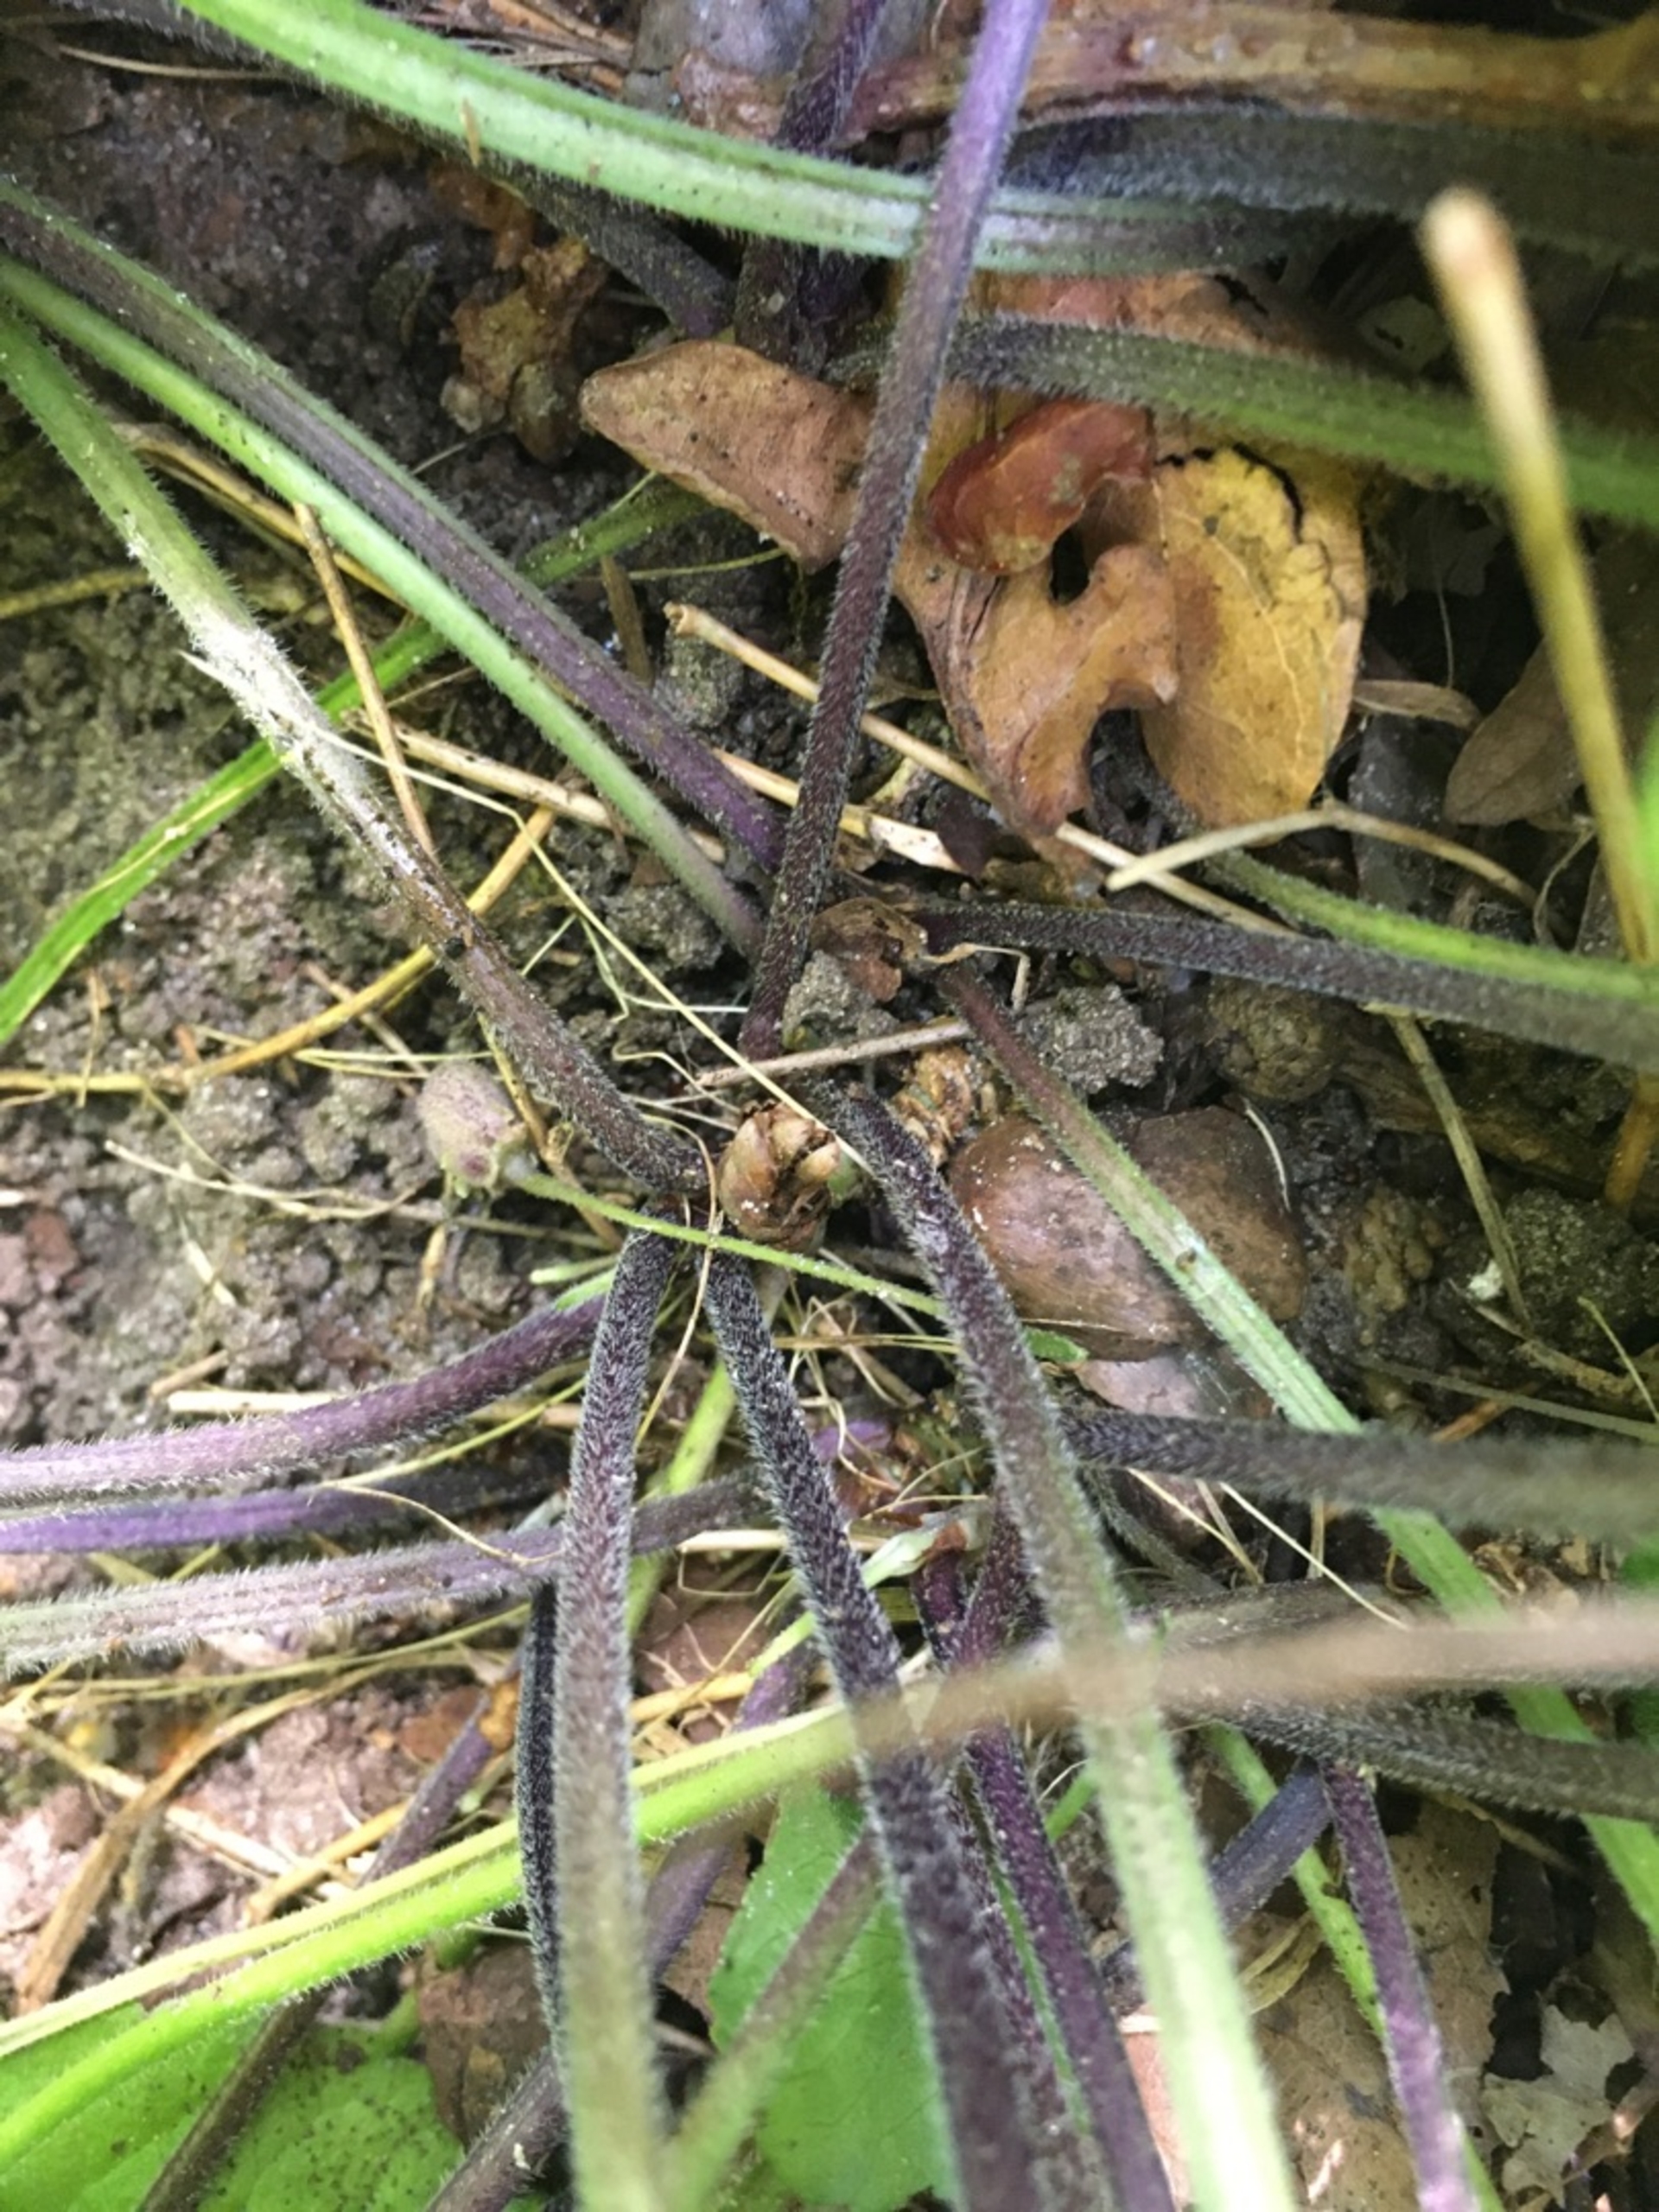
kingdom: Plantae
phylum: Tracheophyta
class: Magnoliopsida
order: Malpighiales
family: Violaceae
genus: Viola
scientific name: Viola hirta
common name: Håret viol
